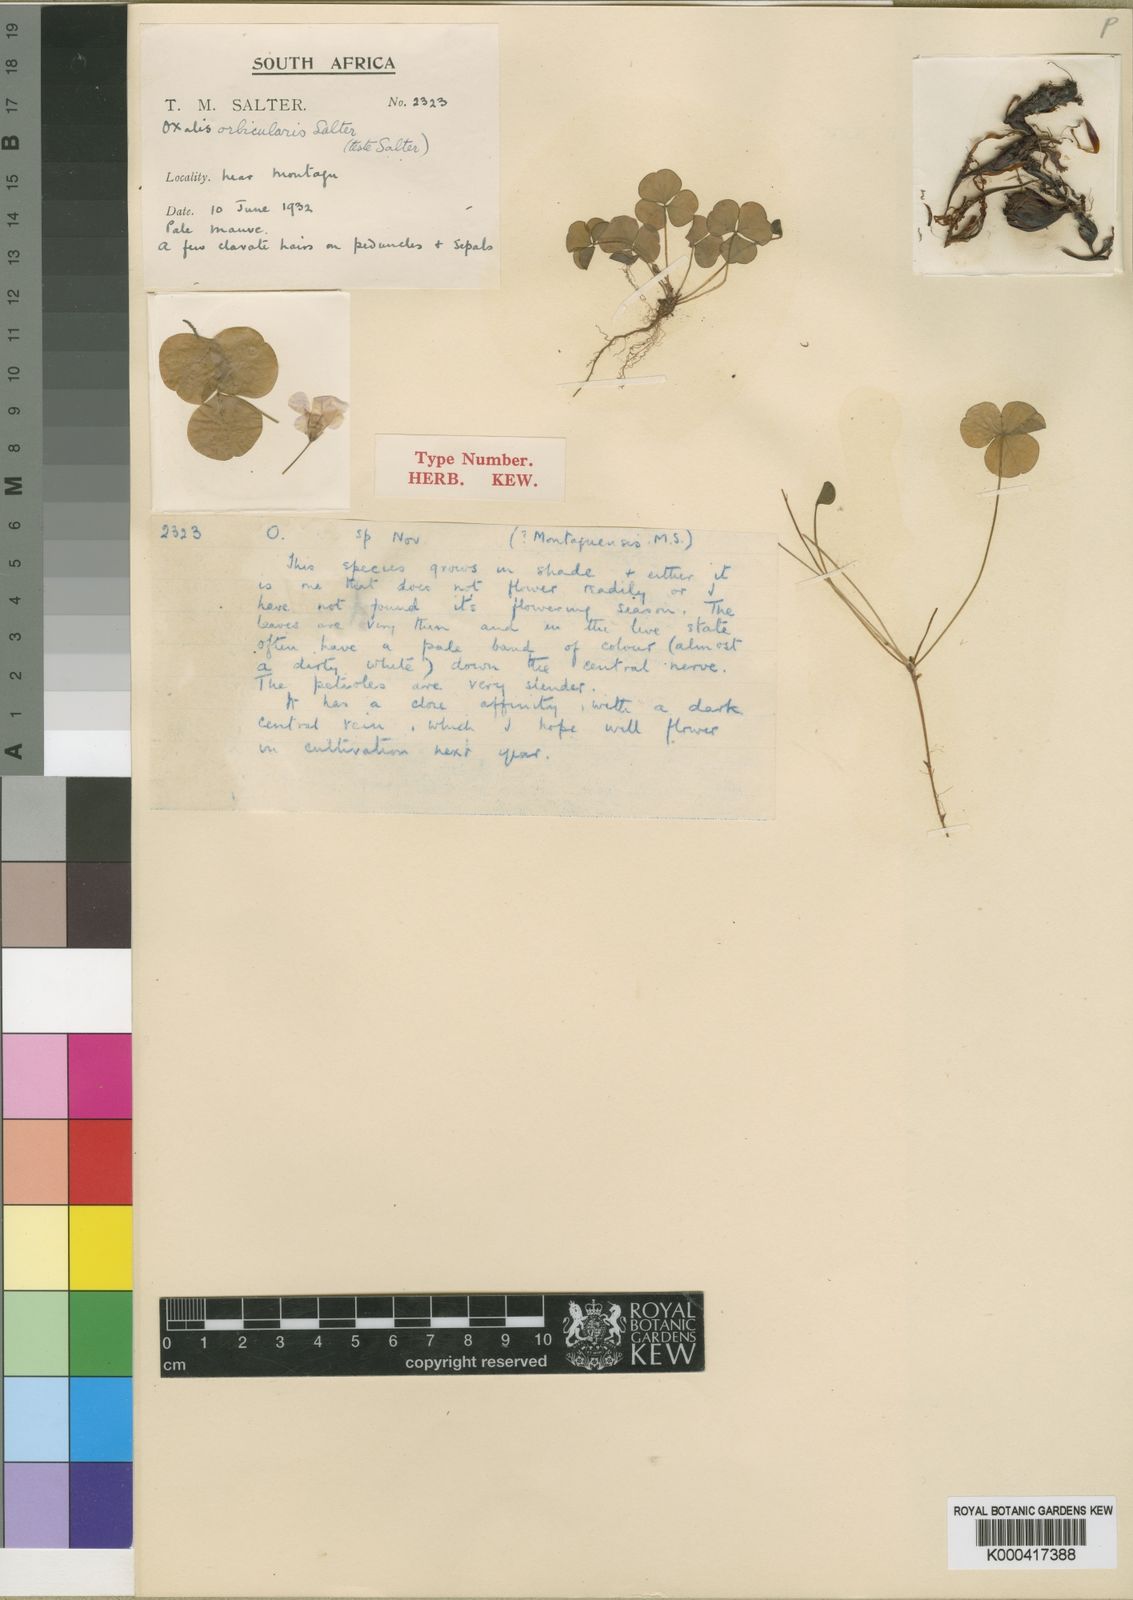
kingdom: Plantae
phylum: Tracheophyta
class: Magnoliopsida
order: Oxalidales
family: Oxalidaceae
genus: Oxalis
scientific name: Oxalis
